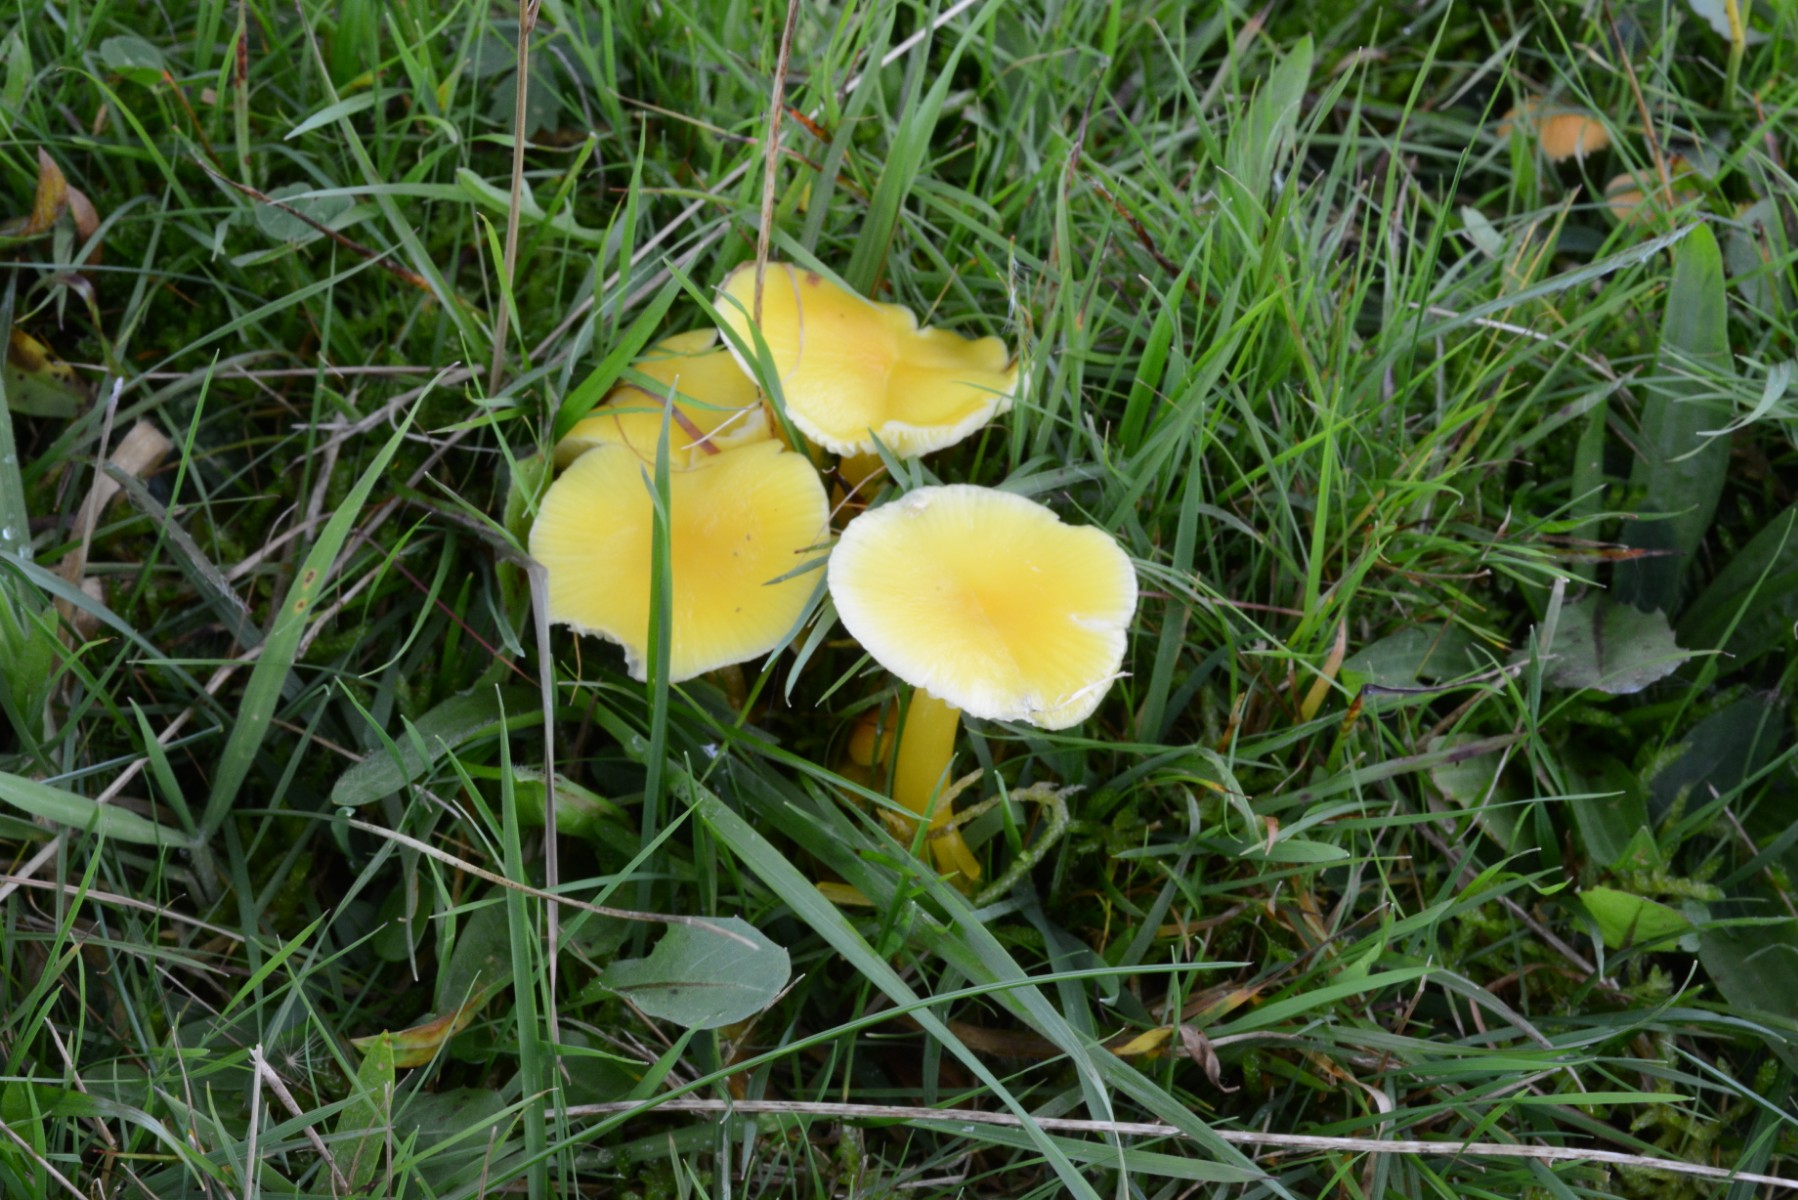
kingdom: Fungi
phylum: Basidiomycota
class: Agaricomycetes
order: Agaricales
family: Hygrophoraceae
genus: Hygrocybe
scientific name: Hygrocybe ceracea
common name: voksgul vokshat
